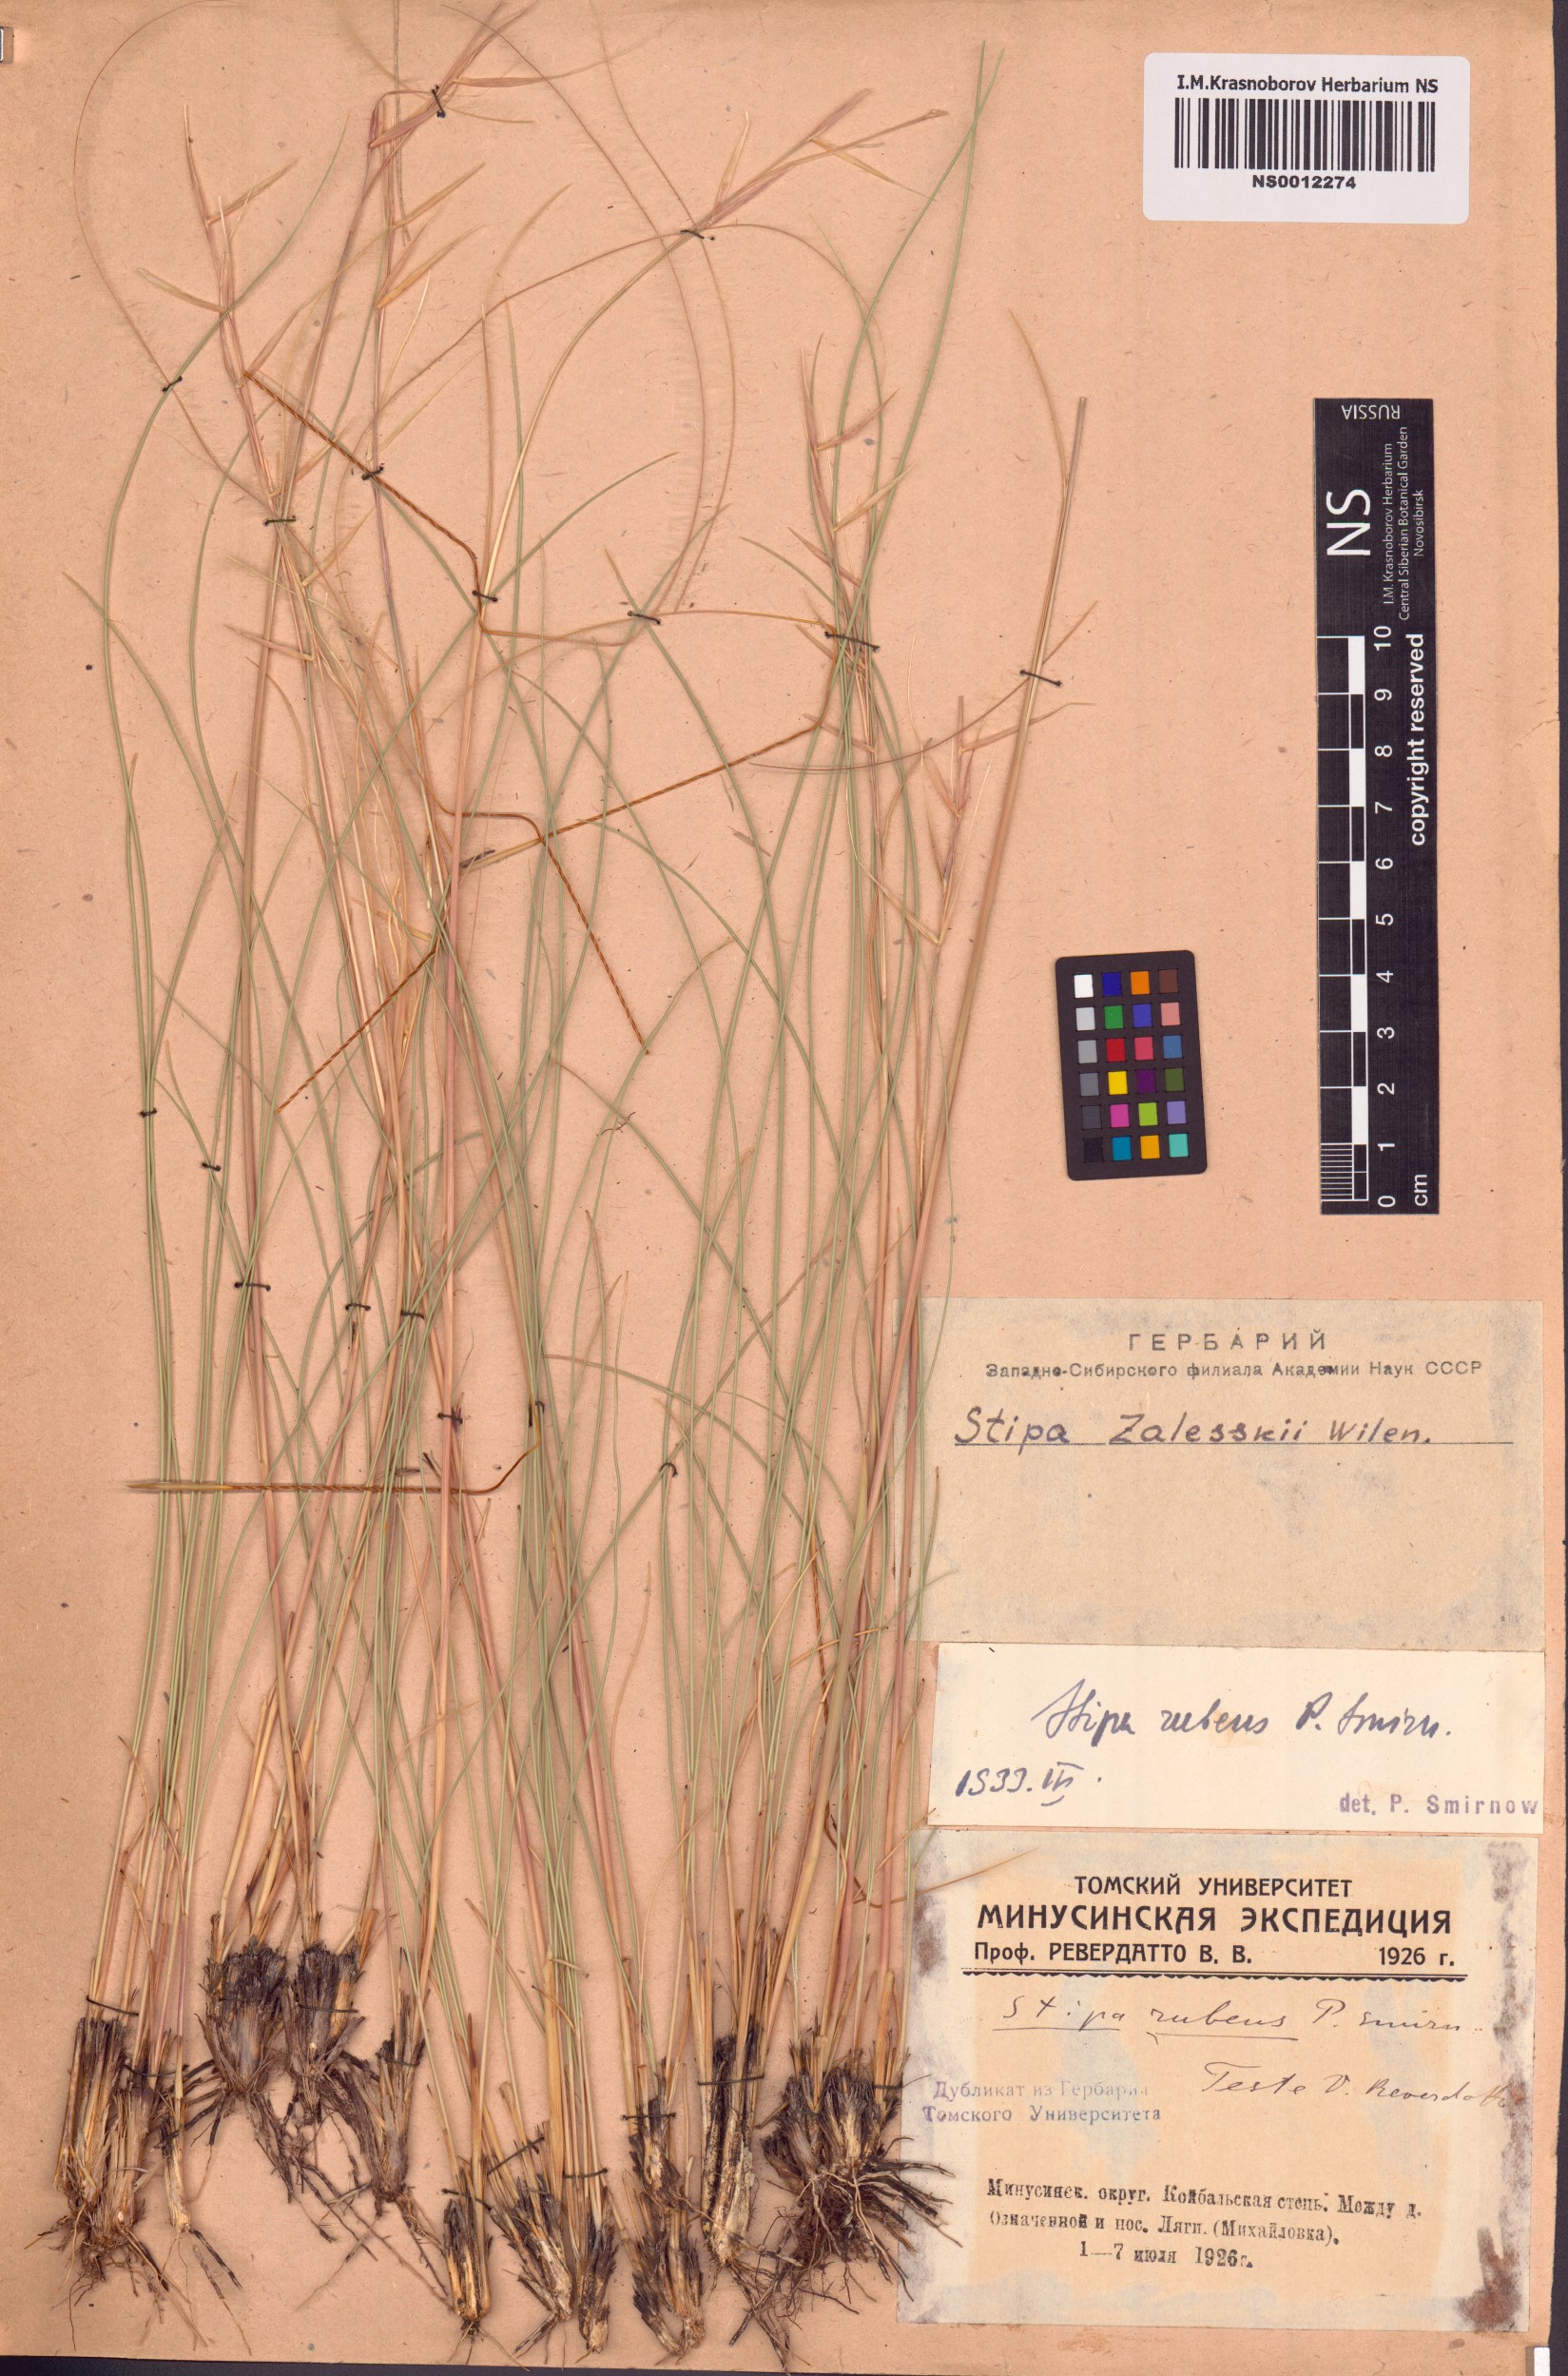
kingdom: Plantae
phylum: Tracheophyta
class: Liliopsida
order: Poales
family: Poaceae
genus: Stipa
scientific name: Stipa zalesskii
